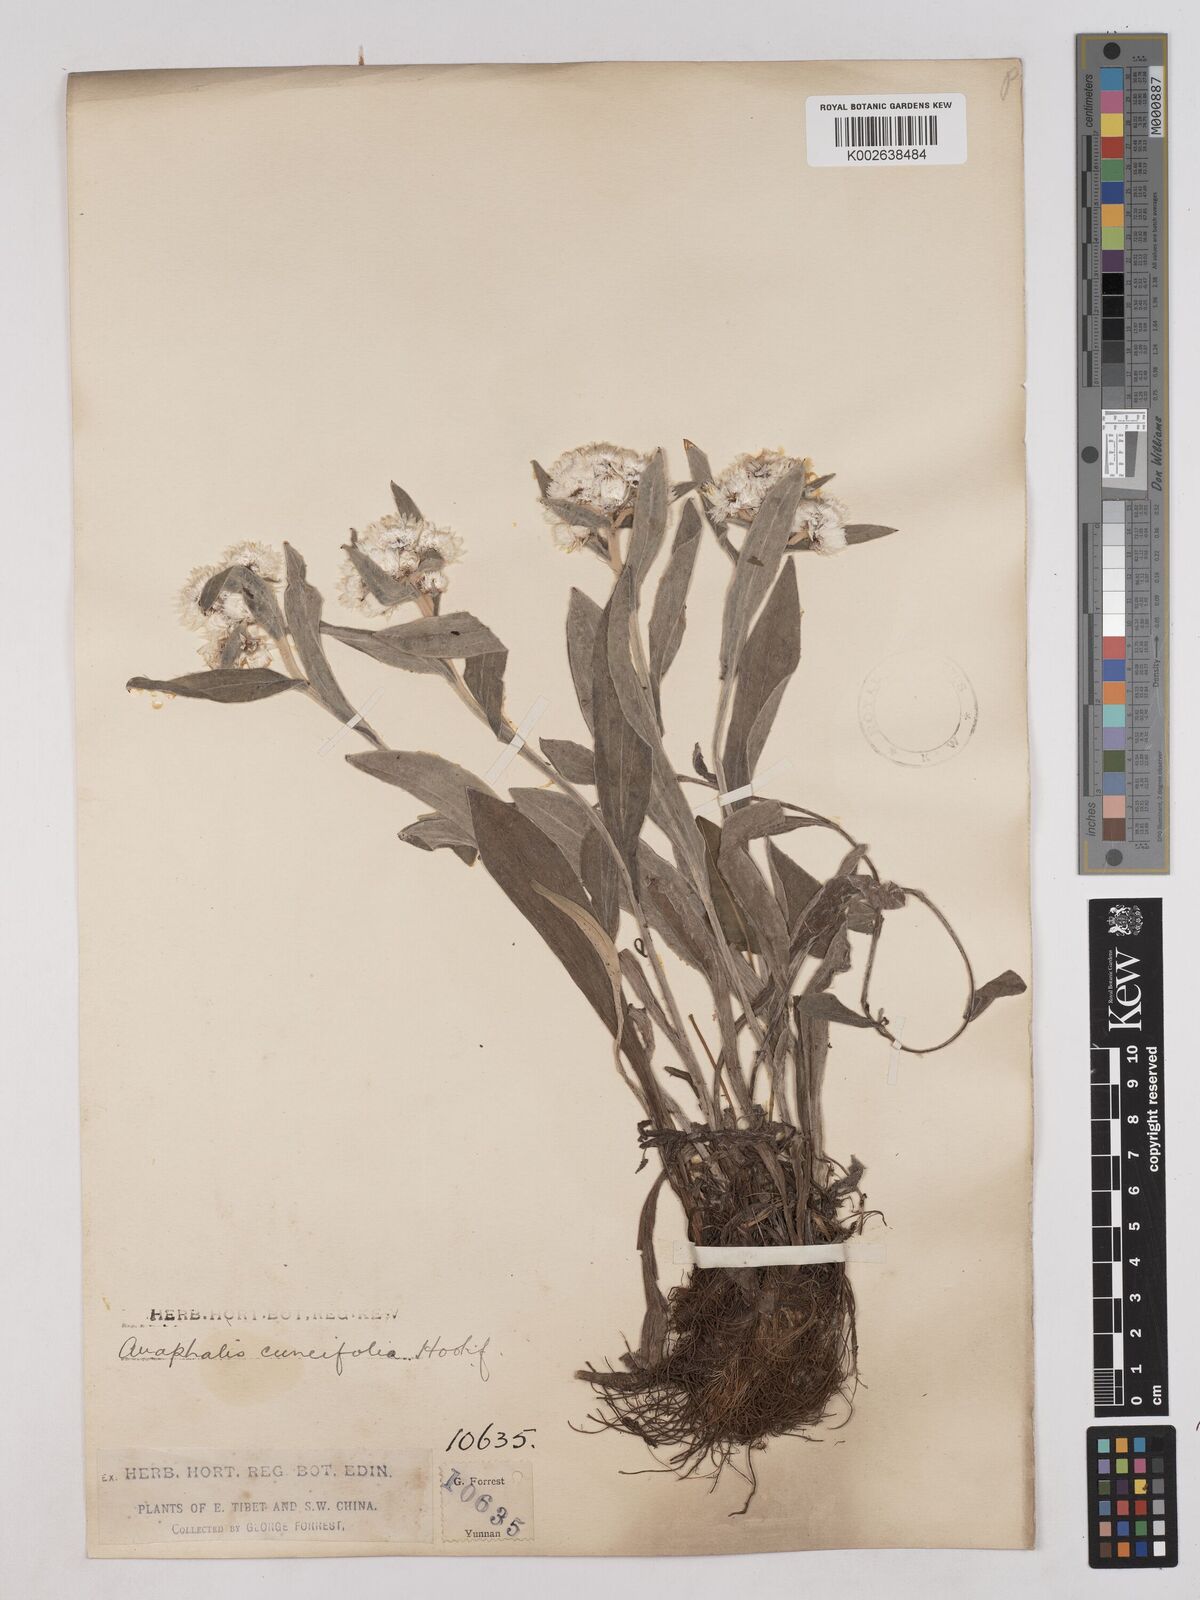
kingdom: Plantae
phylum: Tracheophyta
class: Magnoliopsida
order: Asterales
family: Asteraceae
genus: Anaphalis
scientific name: Anaphalis nepalensis
